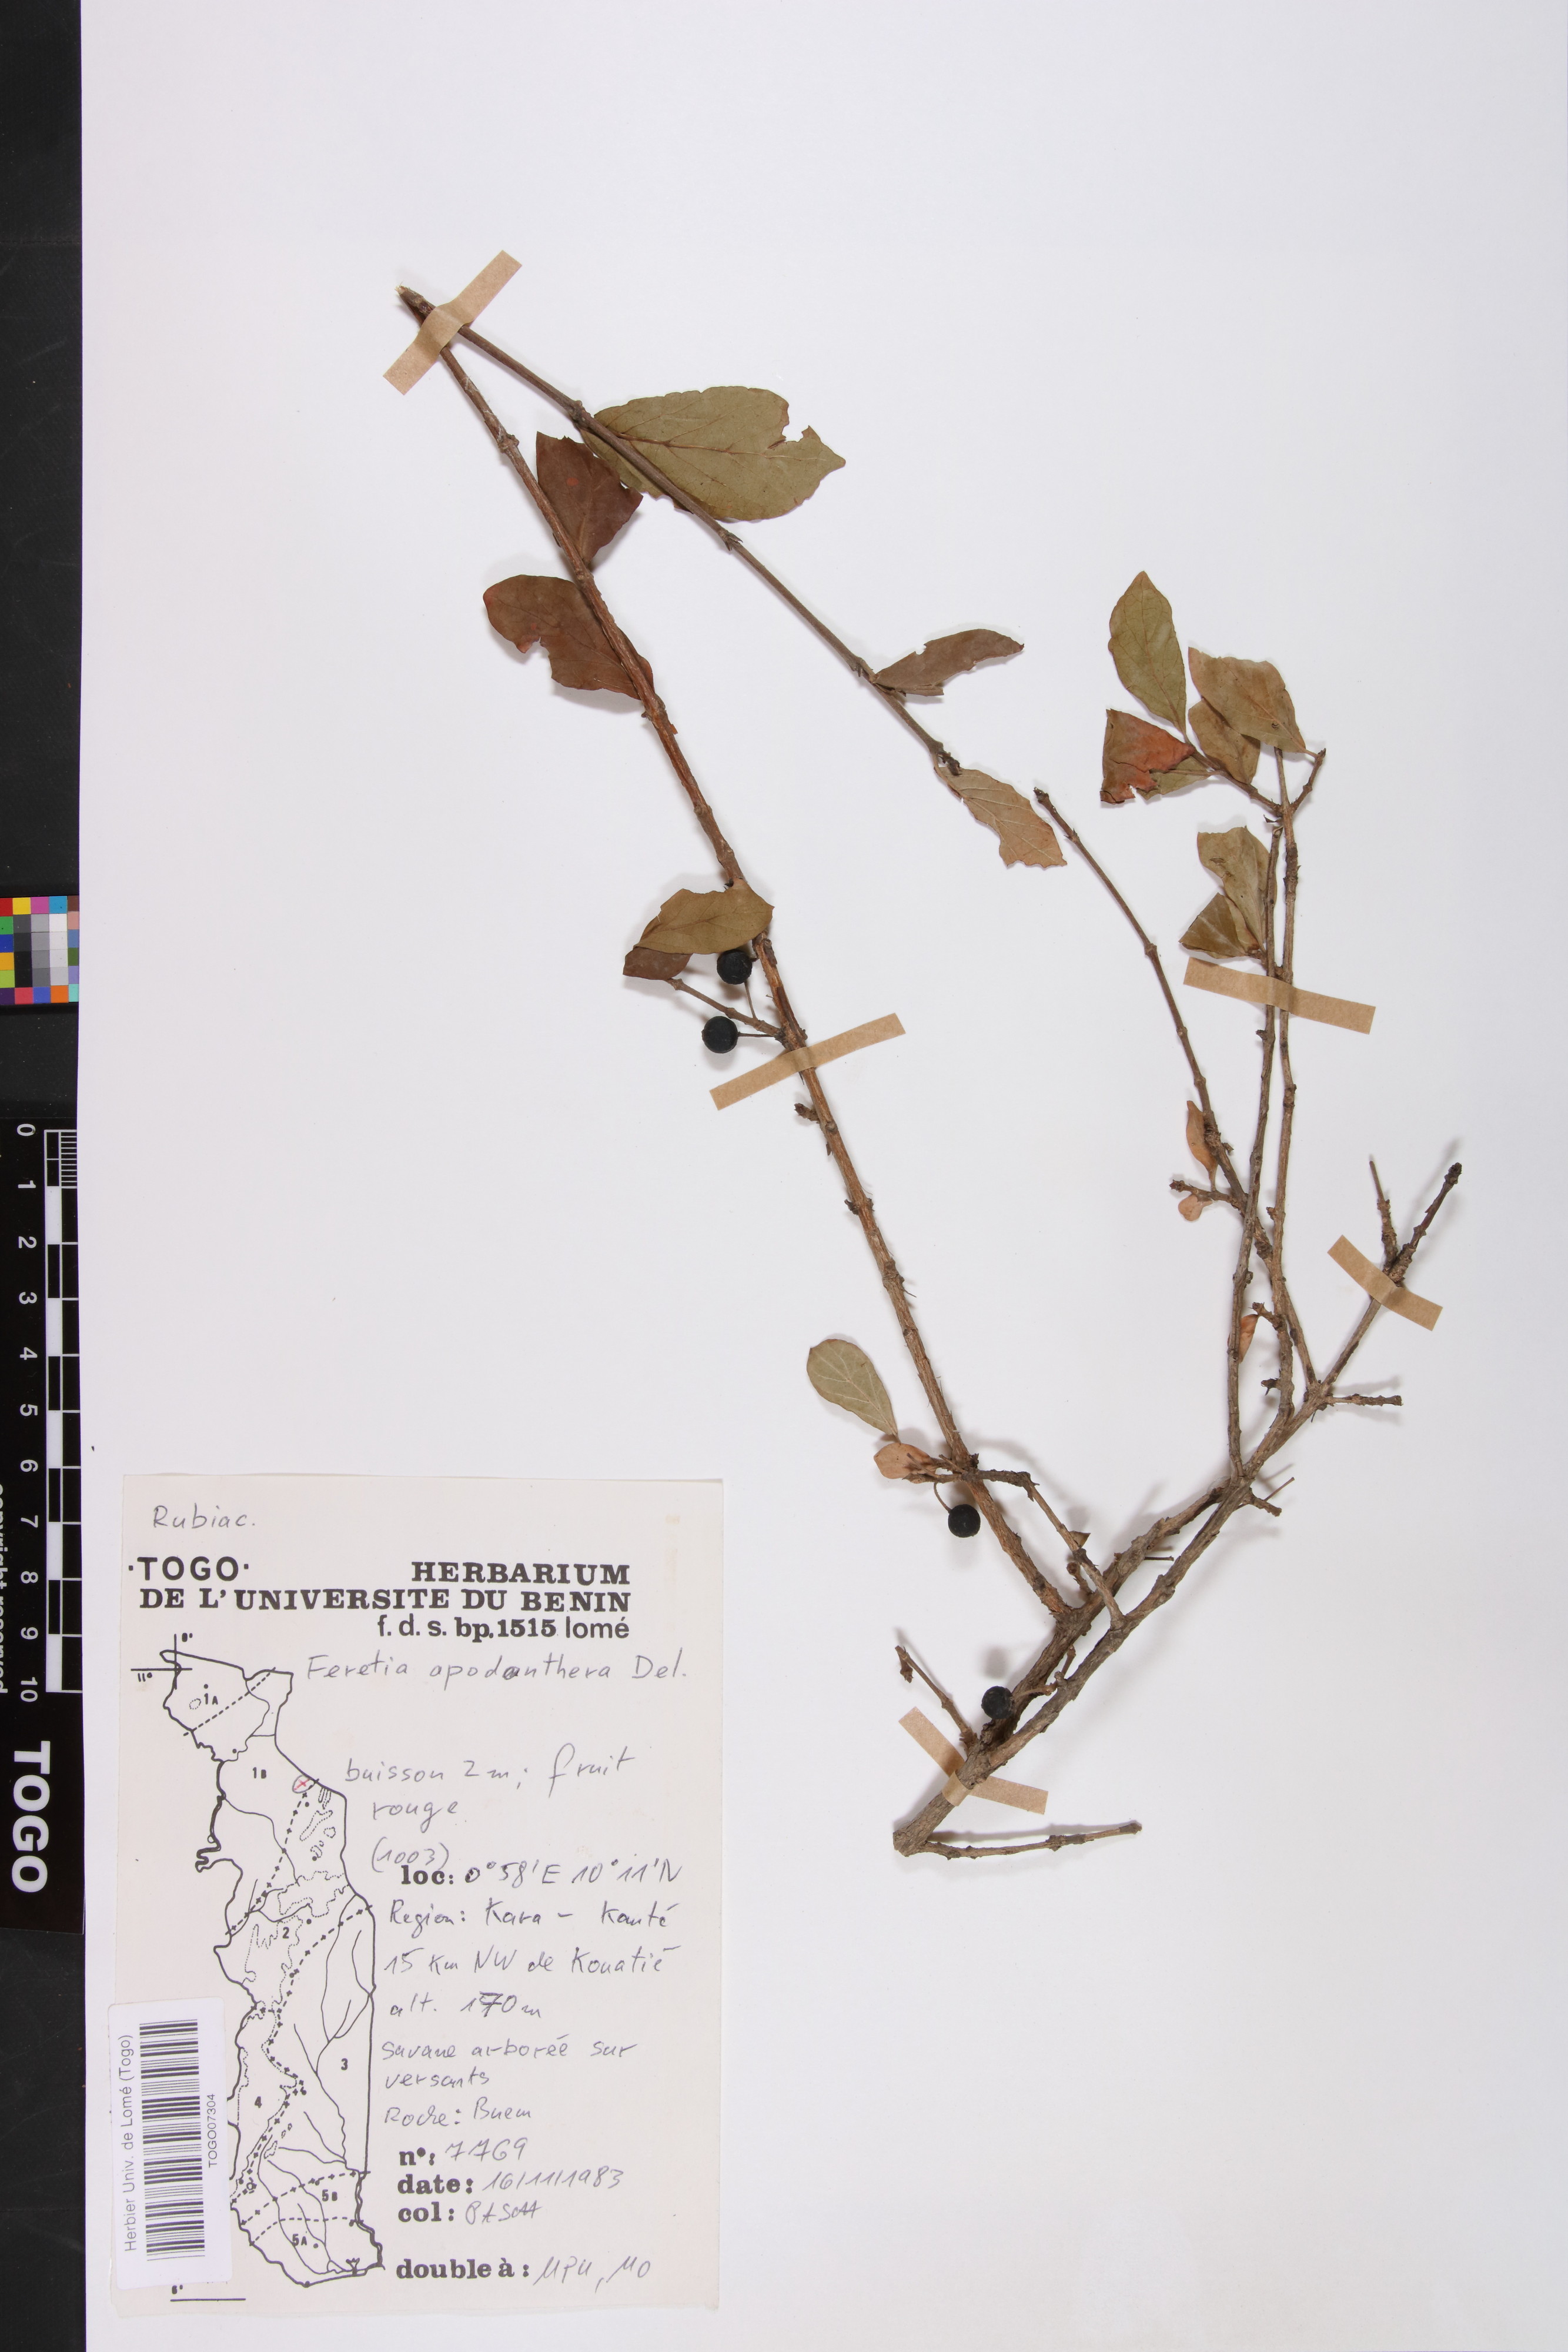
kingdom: Plantae
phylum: Tracheophyta
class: Magnoliopsida
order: Gentianales
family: Rubiaceae
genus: Feretia
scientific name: Feretia apodanthera
